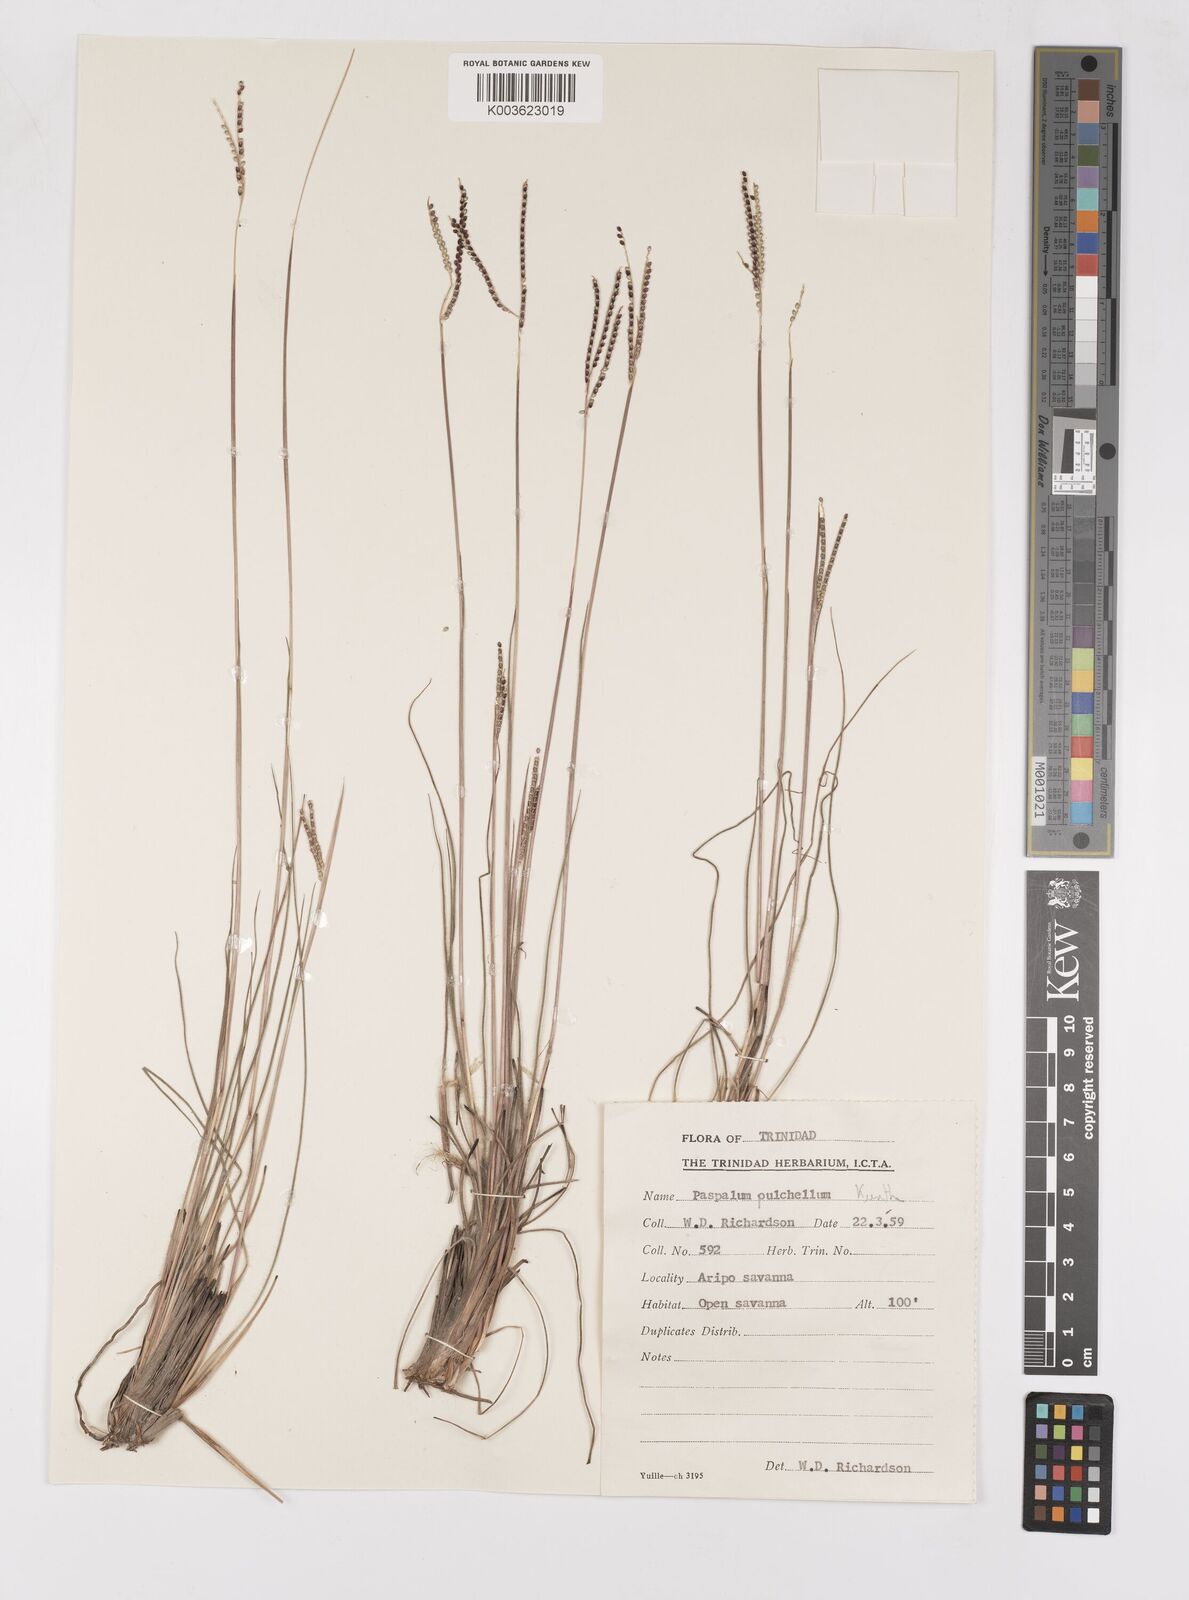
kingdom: Plantae
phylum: Tracheophyta
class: Liliopsida
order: Poales
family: Poaceae
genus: Paspalum
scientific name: Paspalum pulchellum
